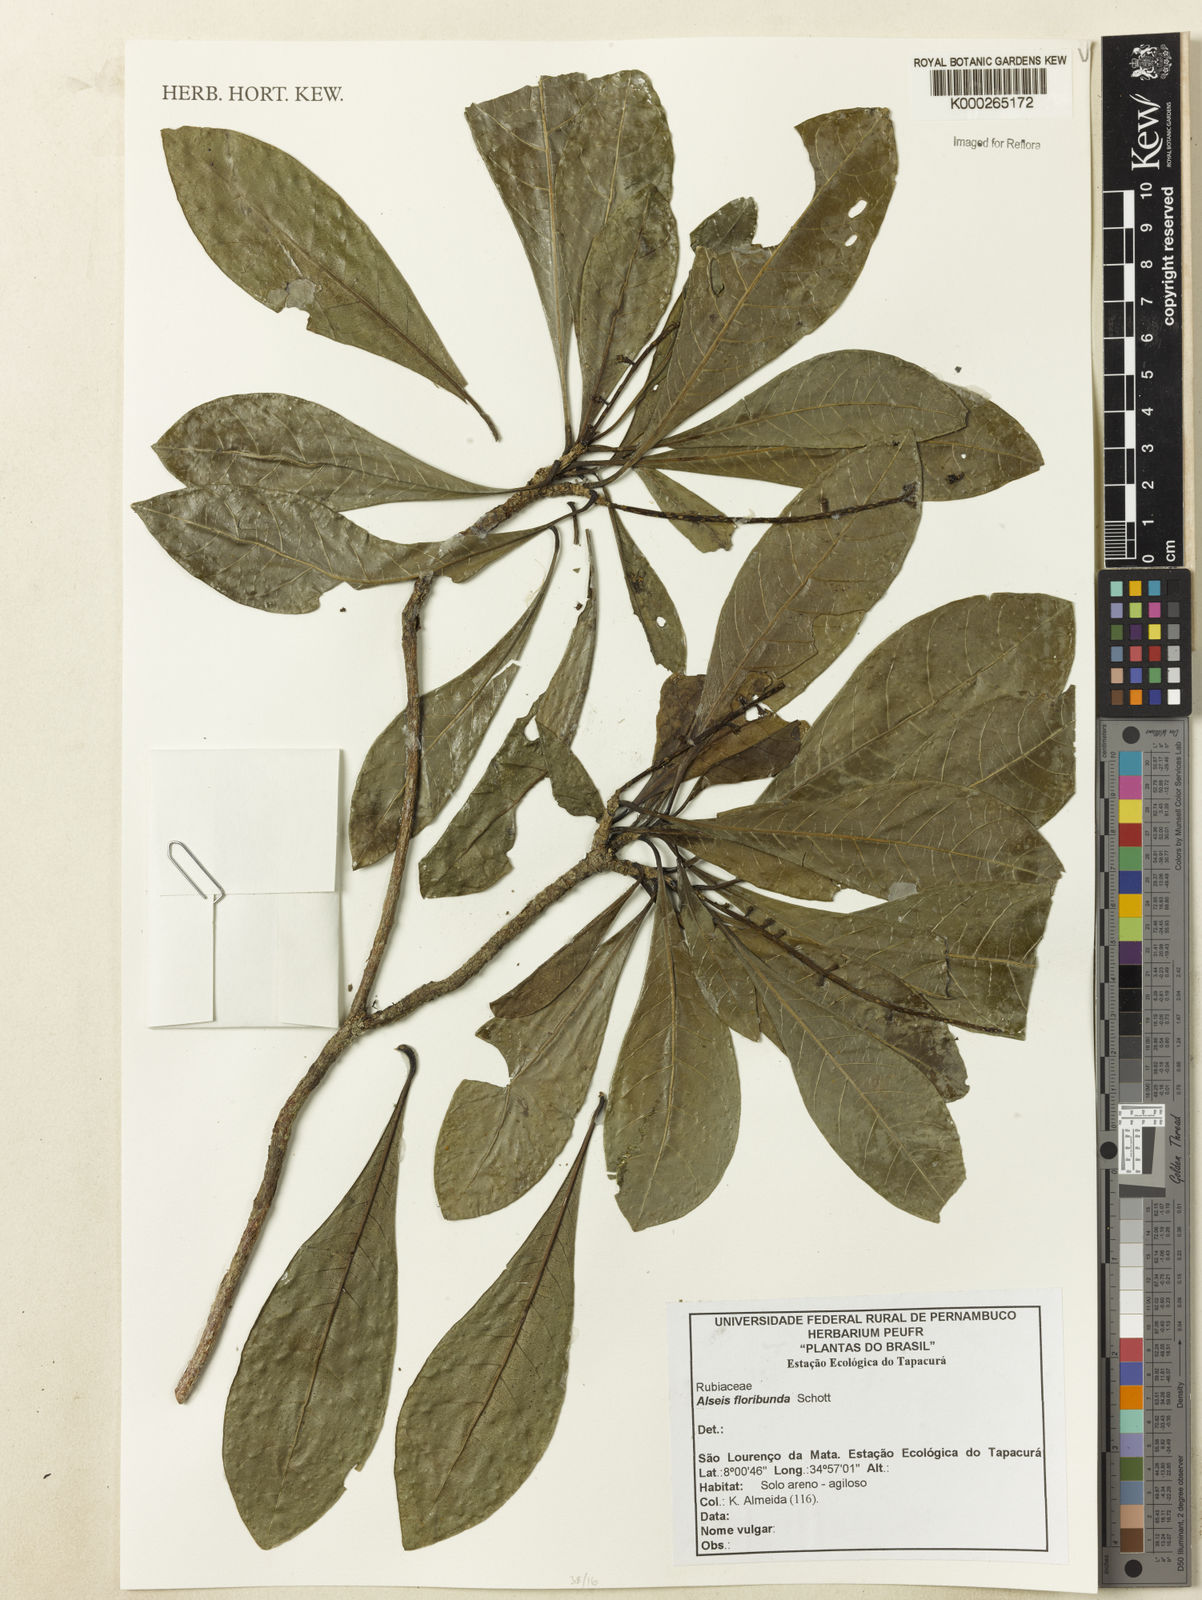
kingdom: Plantae
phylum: Tracheophyta
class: Magnoliopsida
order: Gentianales
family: Rubiaceae
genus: Alseis
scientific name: Alseis floribunda
